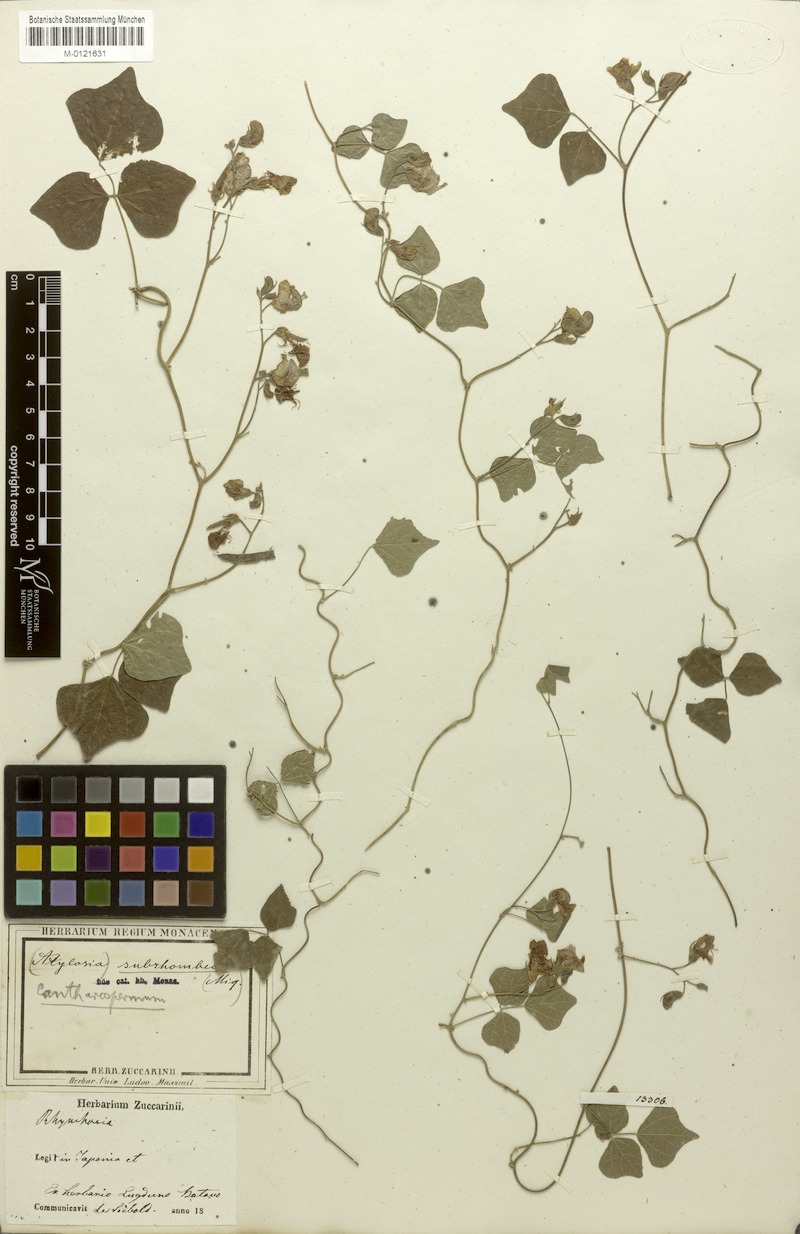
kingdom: Plantae
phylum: Tracheophyta
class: Magnoliopsida
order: Fabales
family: Fabaceae
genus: Dunbaria
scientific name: Dunbaria villosa
